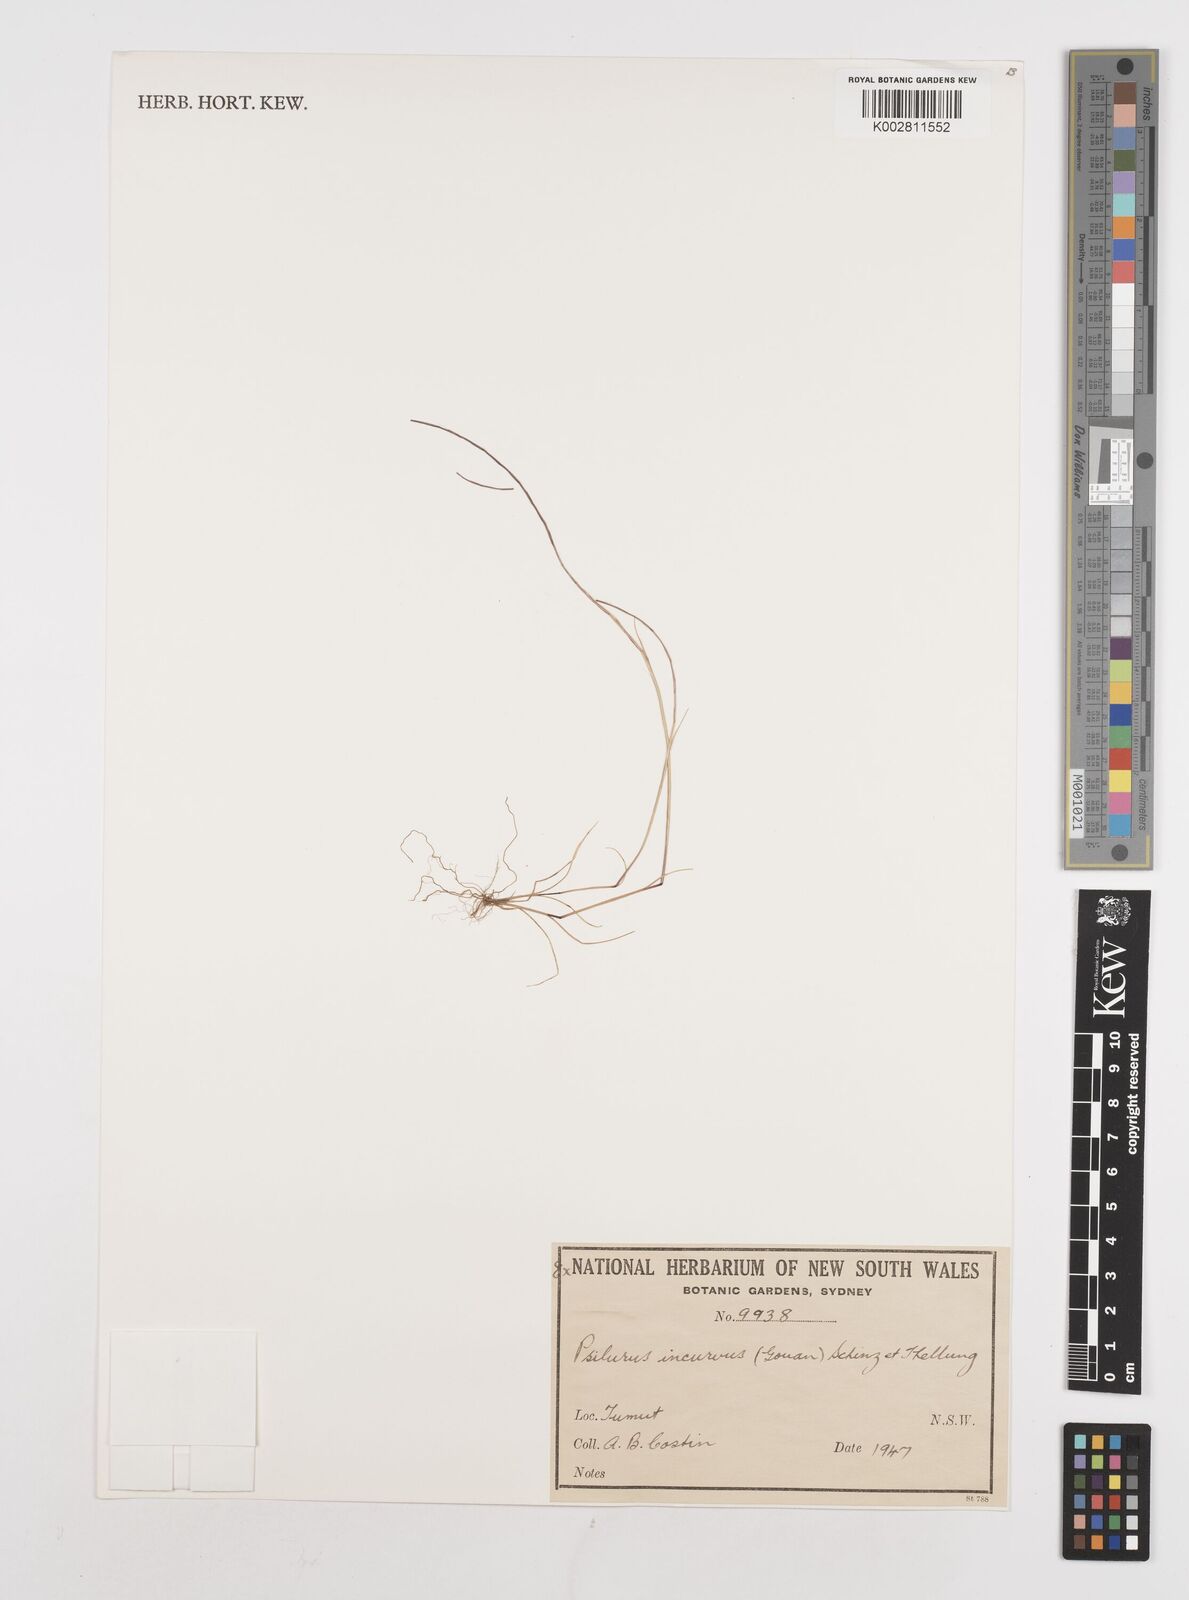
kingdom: Plantae
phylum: Tracheophyta
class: Liliopsida
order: Poales
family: Poaceae
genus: Festuca
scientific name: Festuca incurva
